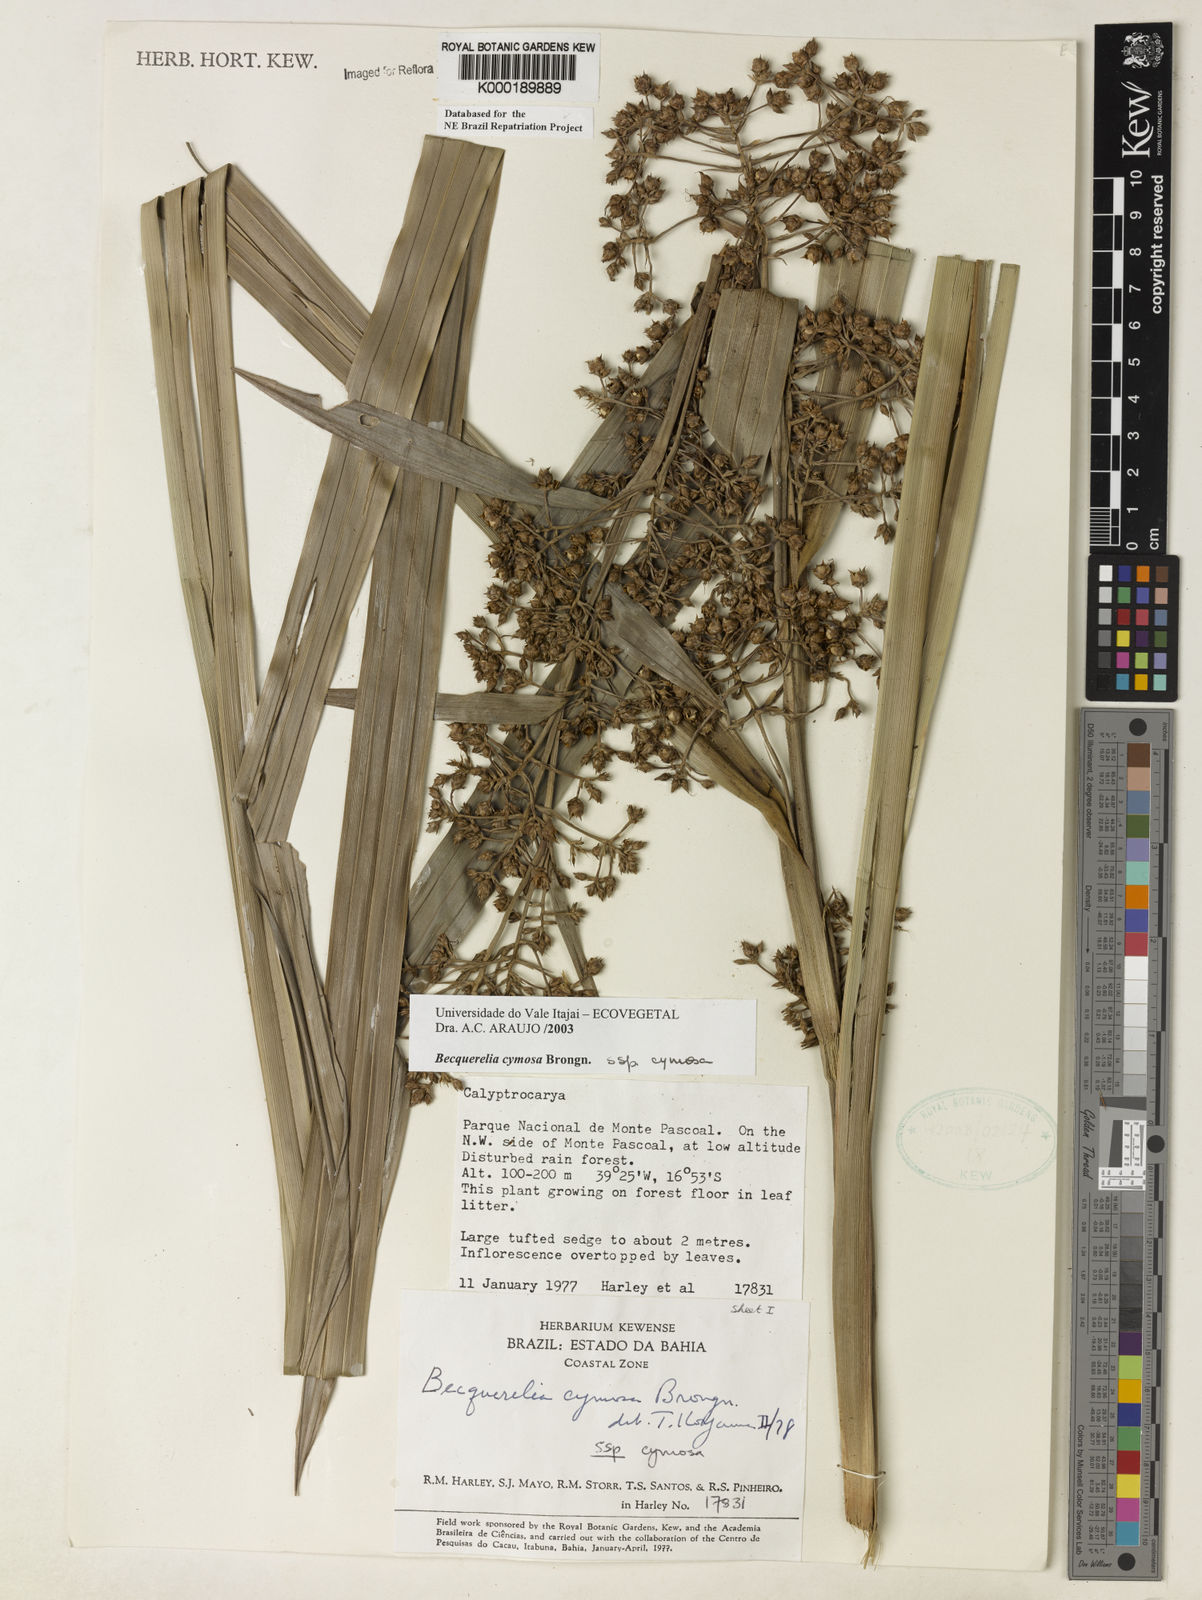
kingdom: Plantae
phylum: Tracheophyta
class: Liliopsida
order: Poales
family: Cyperaceae
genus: Becquerelia
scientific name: Becquerelia cymosa
